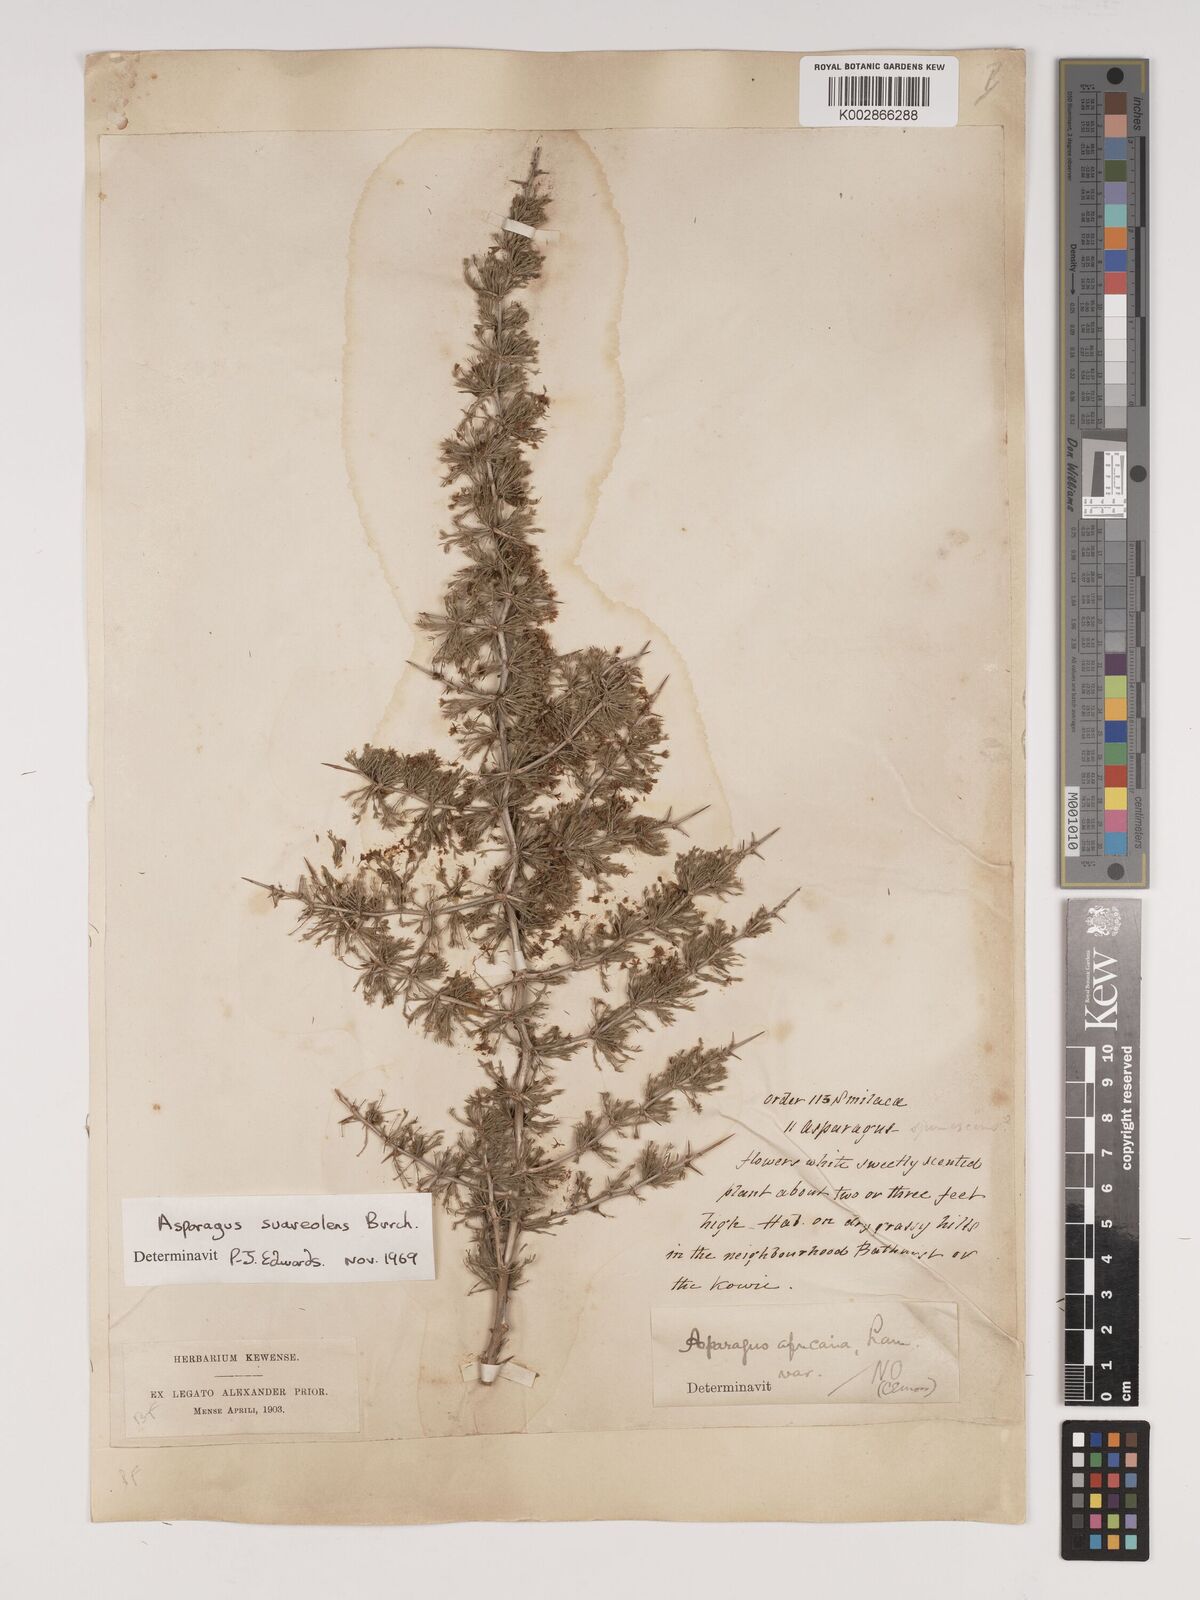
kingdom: Plantae
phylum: Tracheophyta
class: Liliopsida
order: Asparagales
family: Asparagaceae
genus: Asparagus
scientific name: Asparagus suaveolens
